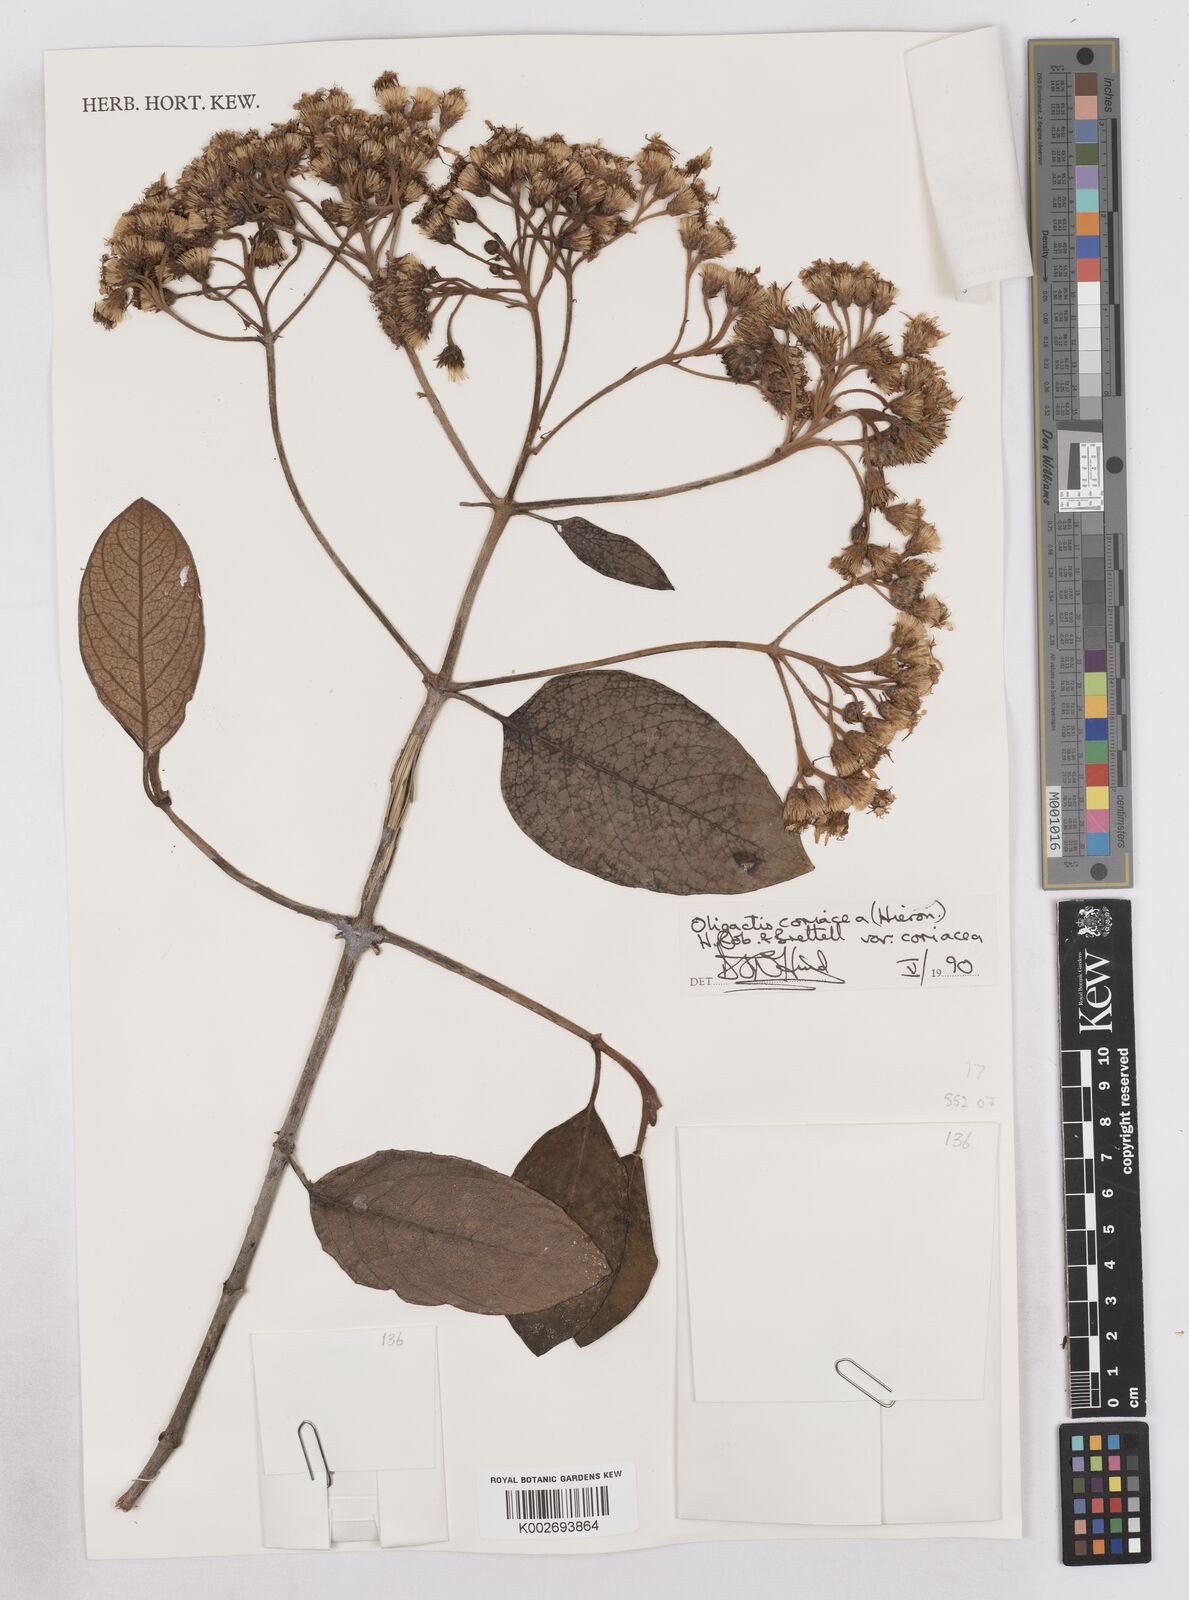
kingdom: Plantae
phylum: Tracheophyta
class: Magnoliopsida
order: Asterales
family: Asteraceae
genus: Sampera
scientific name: Sampera coriacea
